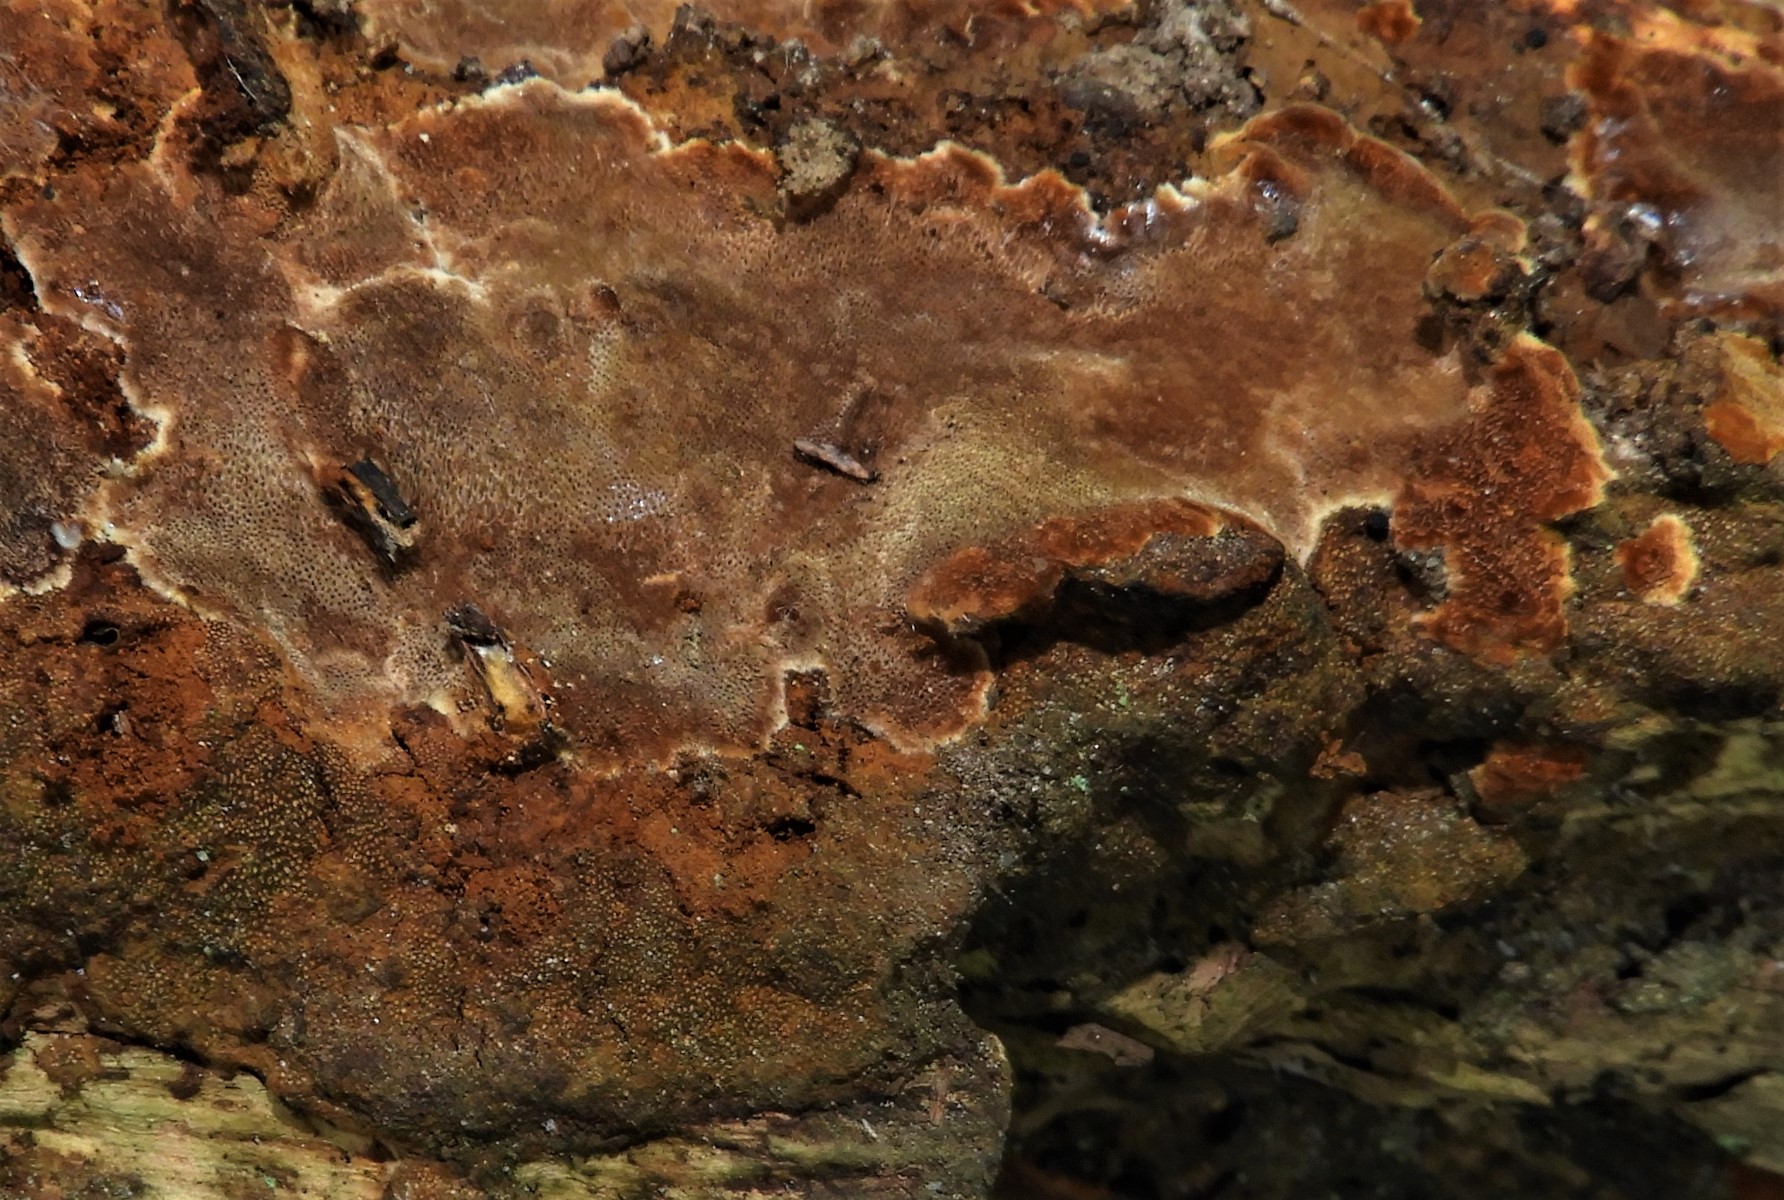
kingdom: Fungi
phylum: Basidiomycota
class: Agaricomycetes
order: Hymenochaetales
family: Hymenochaetaceae
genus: Fuscoporia
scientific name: Fuscoporia ferrea
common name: skorpe-ildporesvamp
